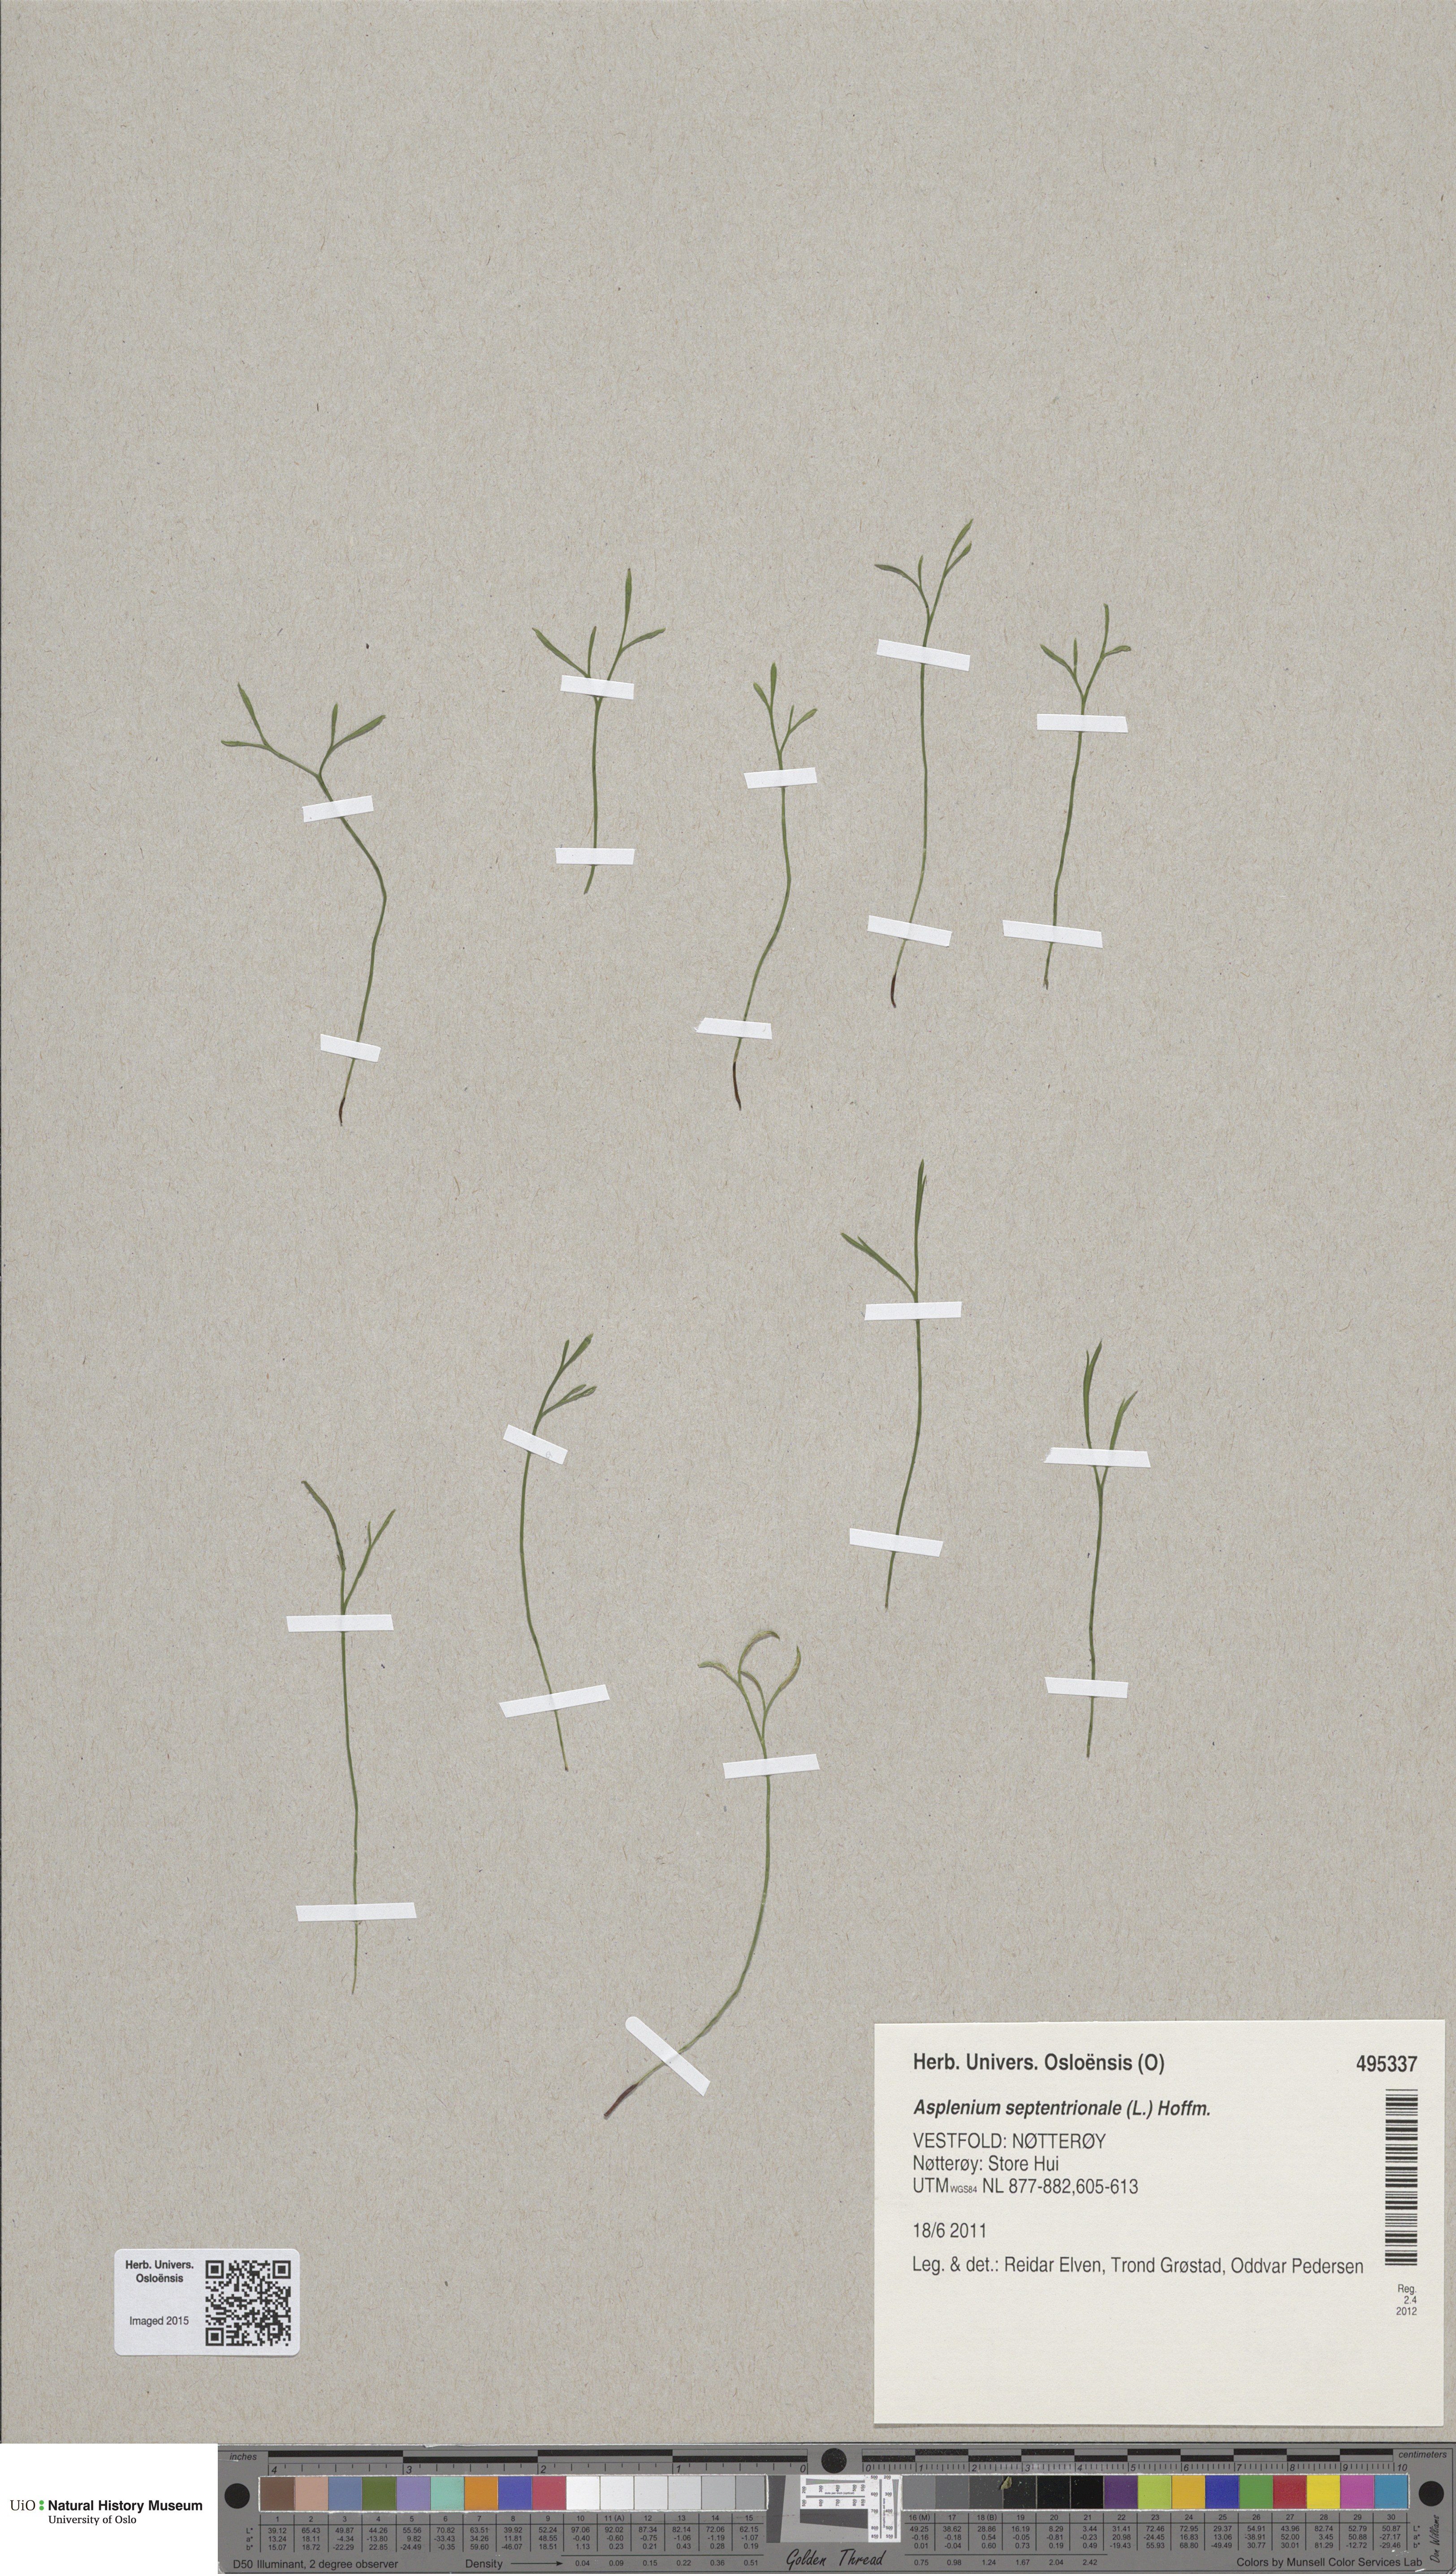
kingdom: Plantae
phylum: Tracheophyta
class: Polypodiopsida
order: Polypodiales
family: Aspleniaceae
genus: Asplenium
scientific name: Asplenium septentrionale
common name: Forked spleenwort
